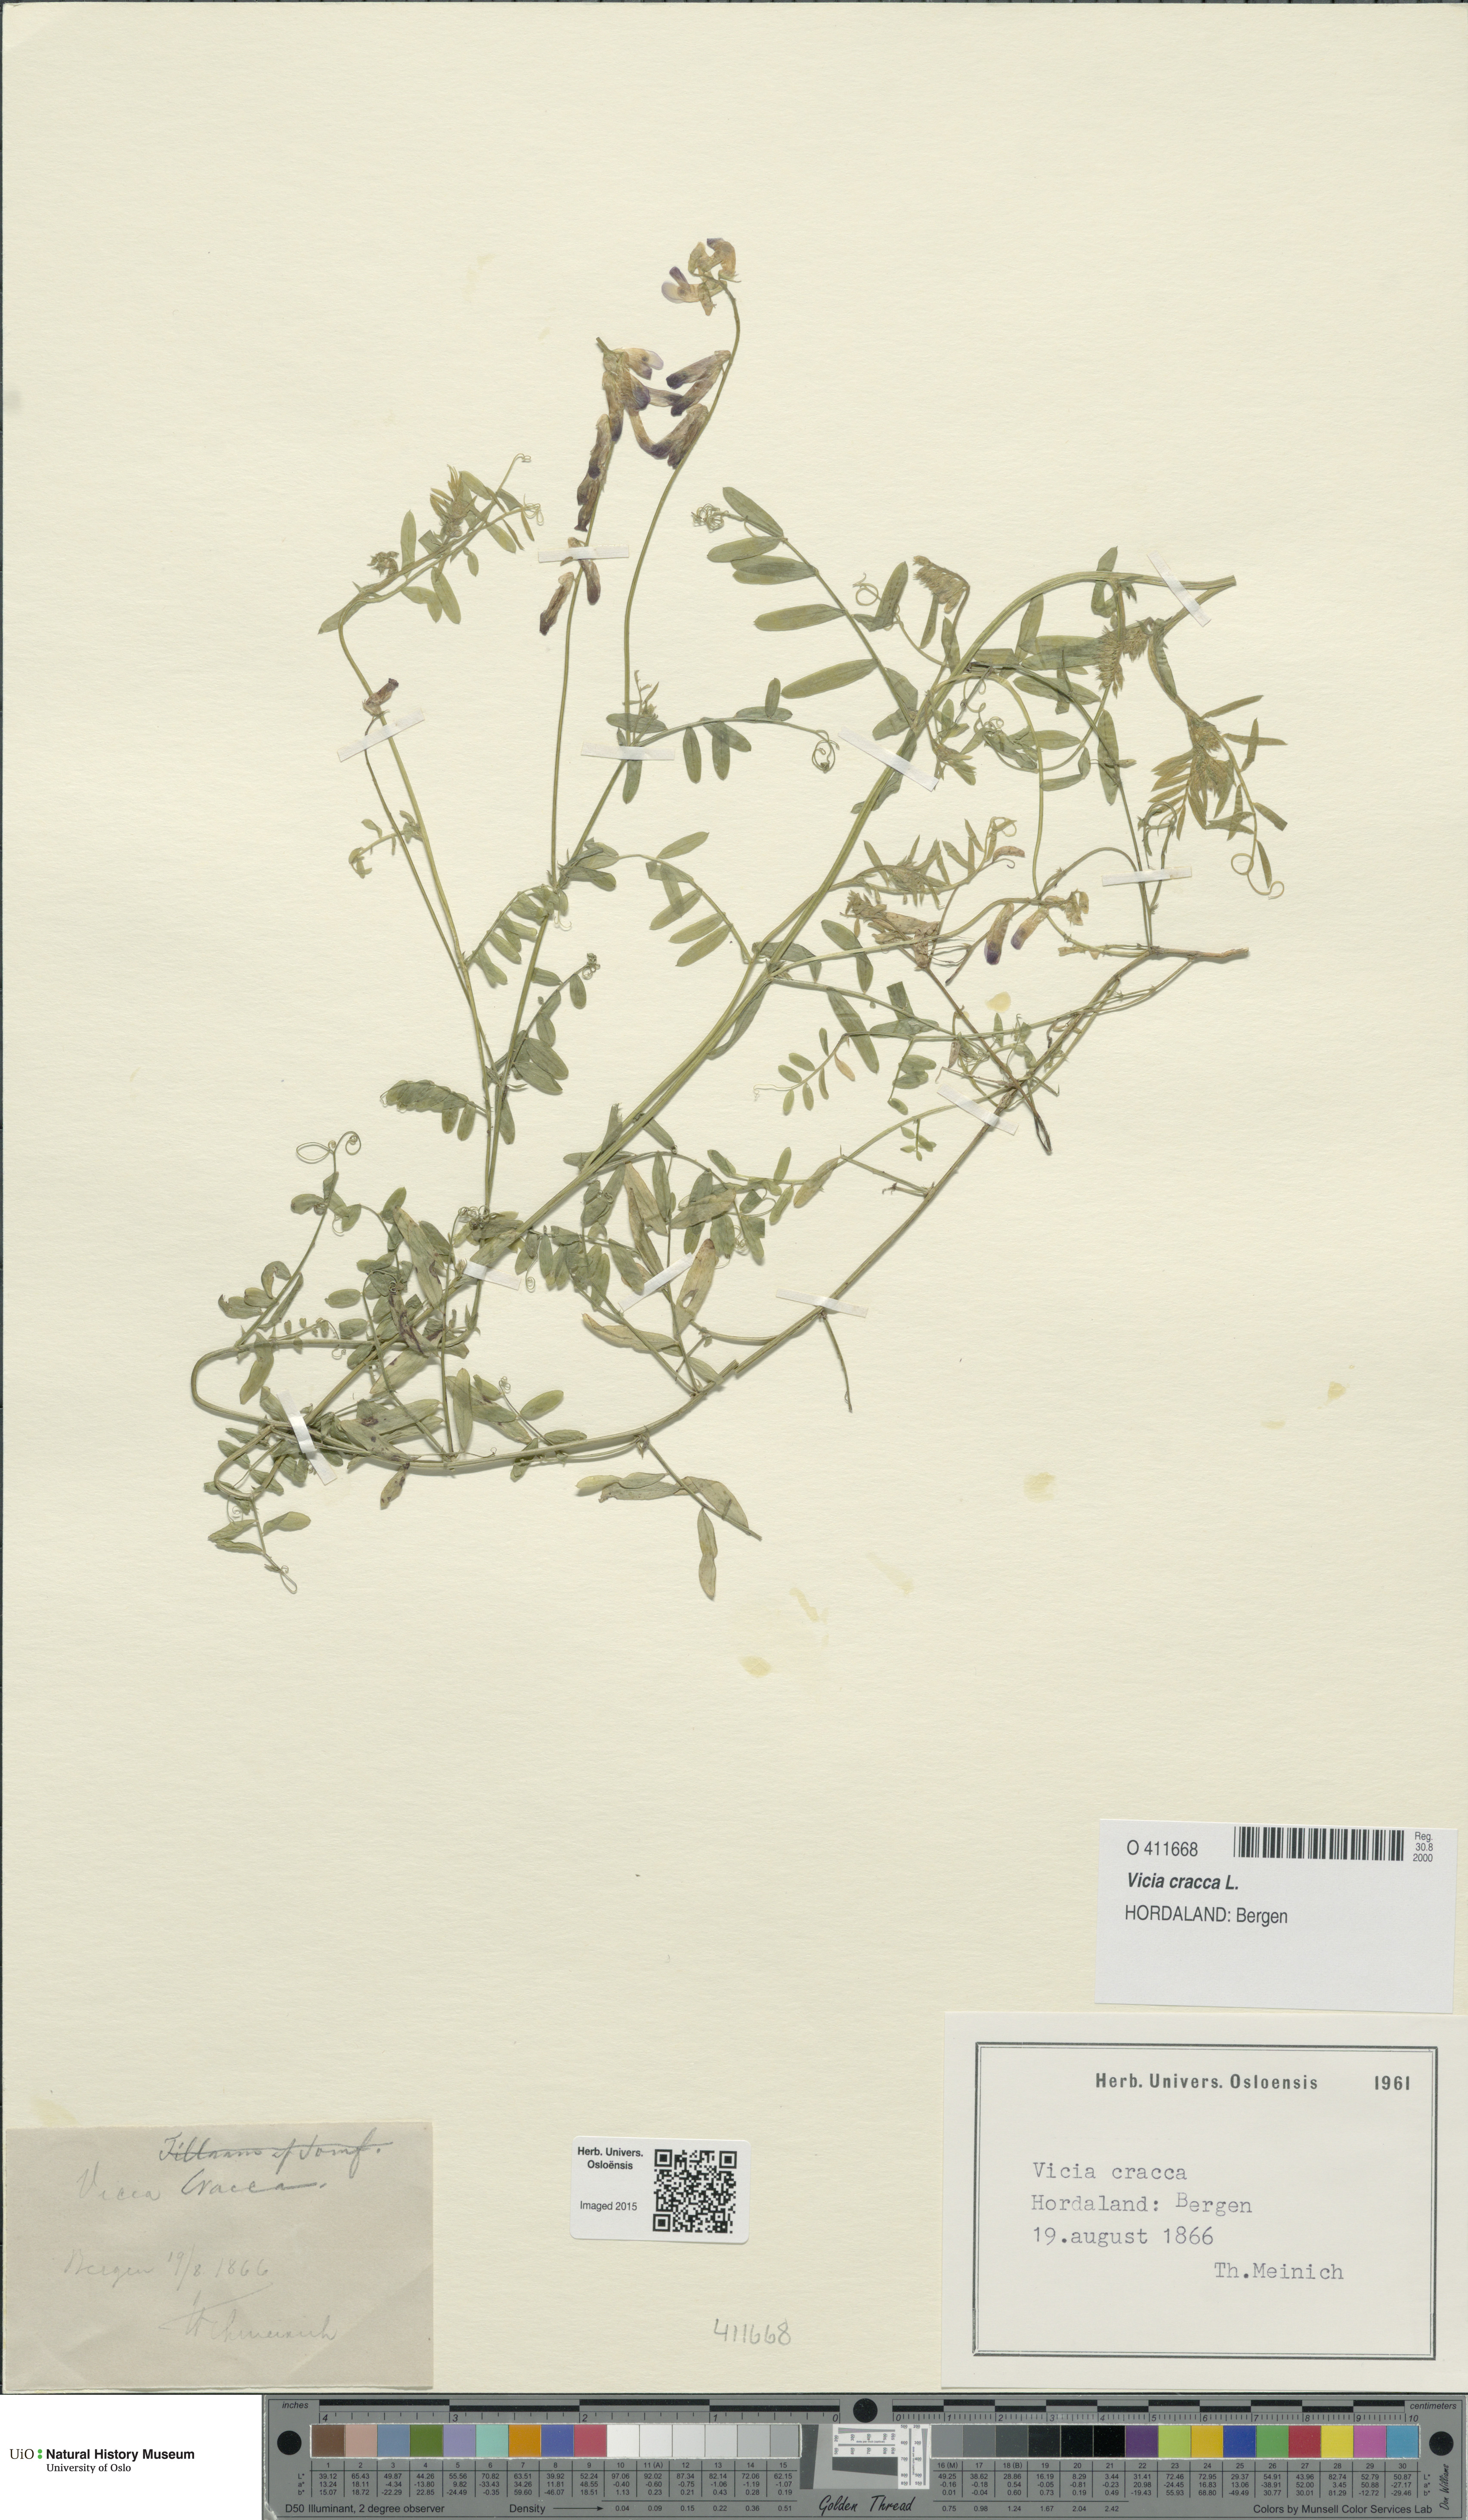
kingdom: Plantae
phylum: Tracheophyta
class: Magnoliopsida
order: Fabales
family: Fabaceae
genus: Vicia
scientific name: Vicia cracca
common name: Bird vetch
